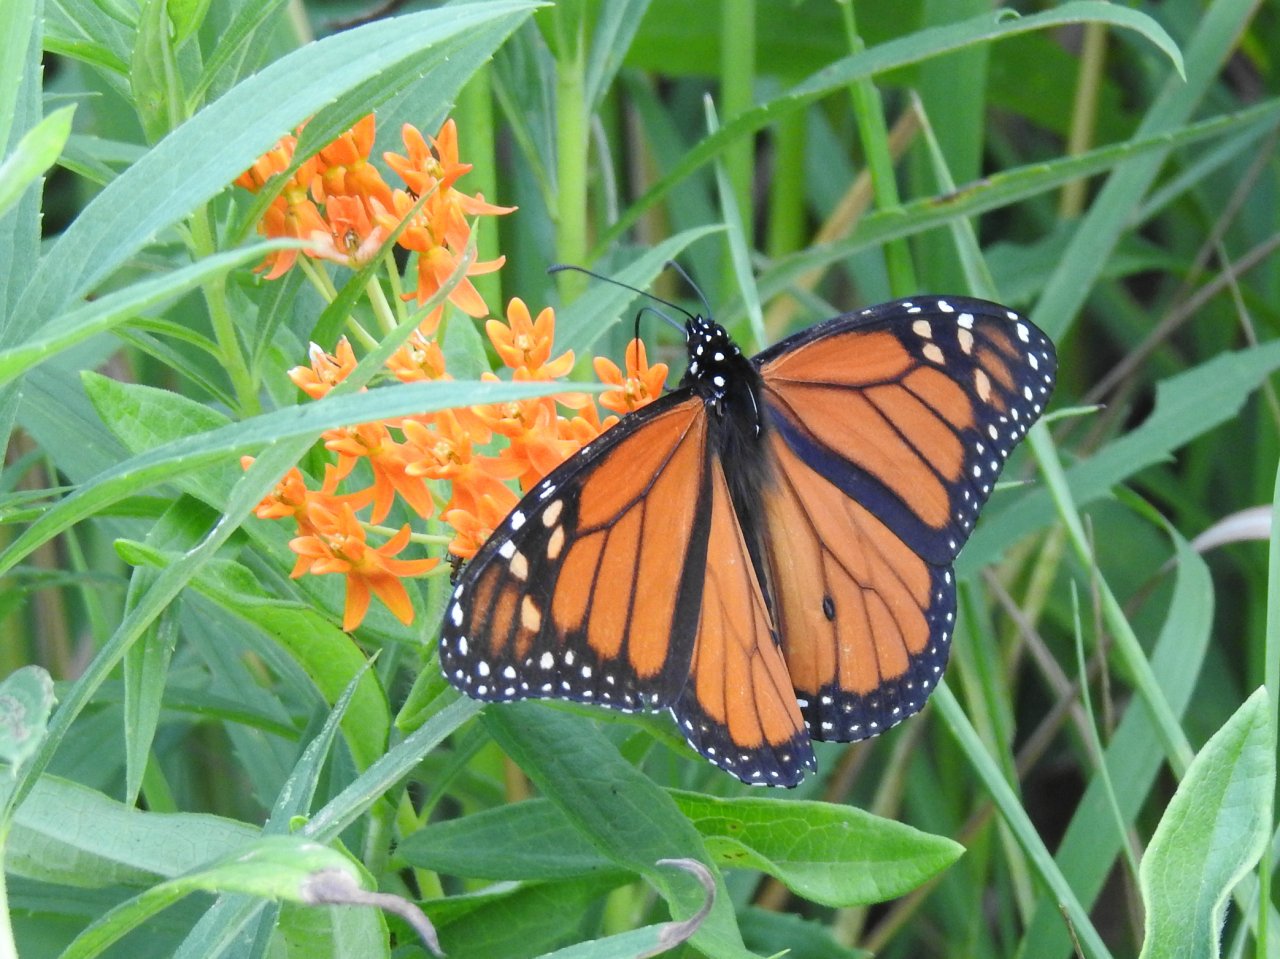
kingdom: Animalia
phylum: Arthropoda
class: Insecta
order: Lepidoptera
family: Nymphalidae
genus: Danaus
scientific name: Danaus plexippus
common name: Monarch
